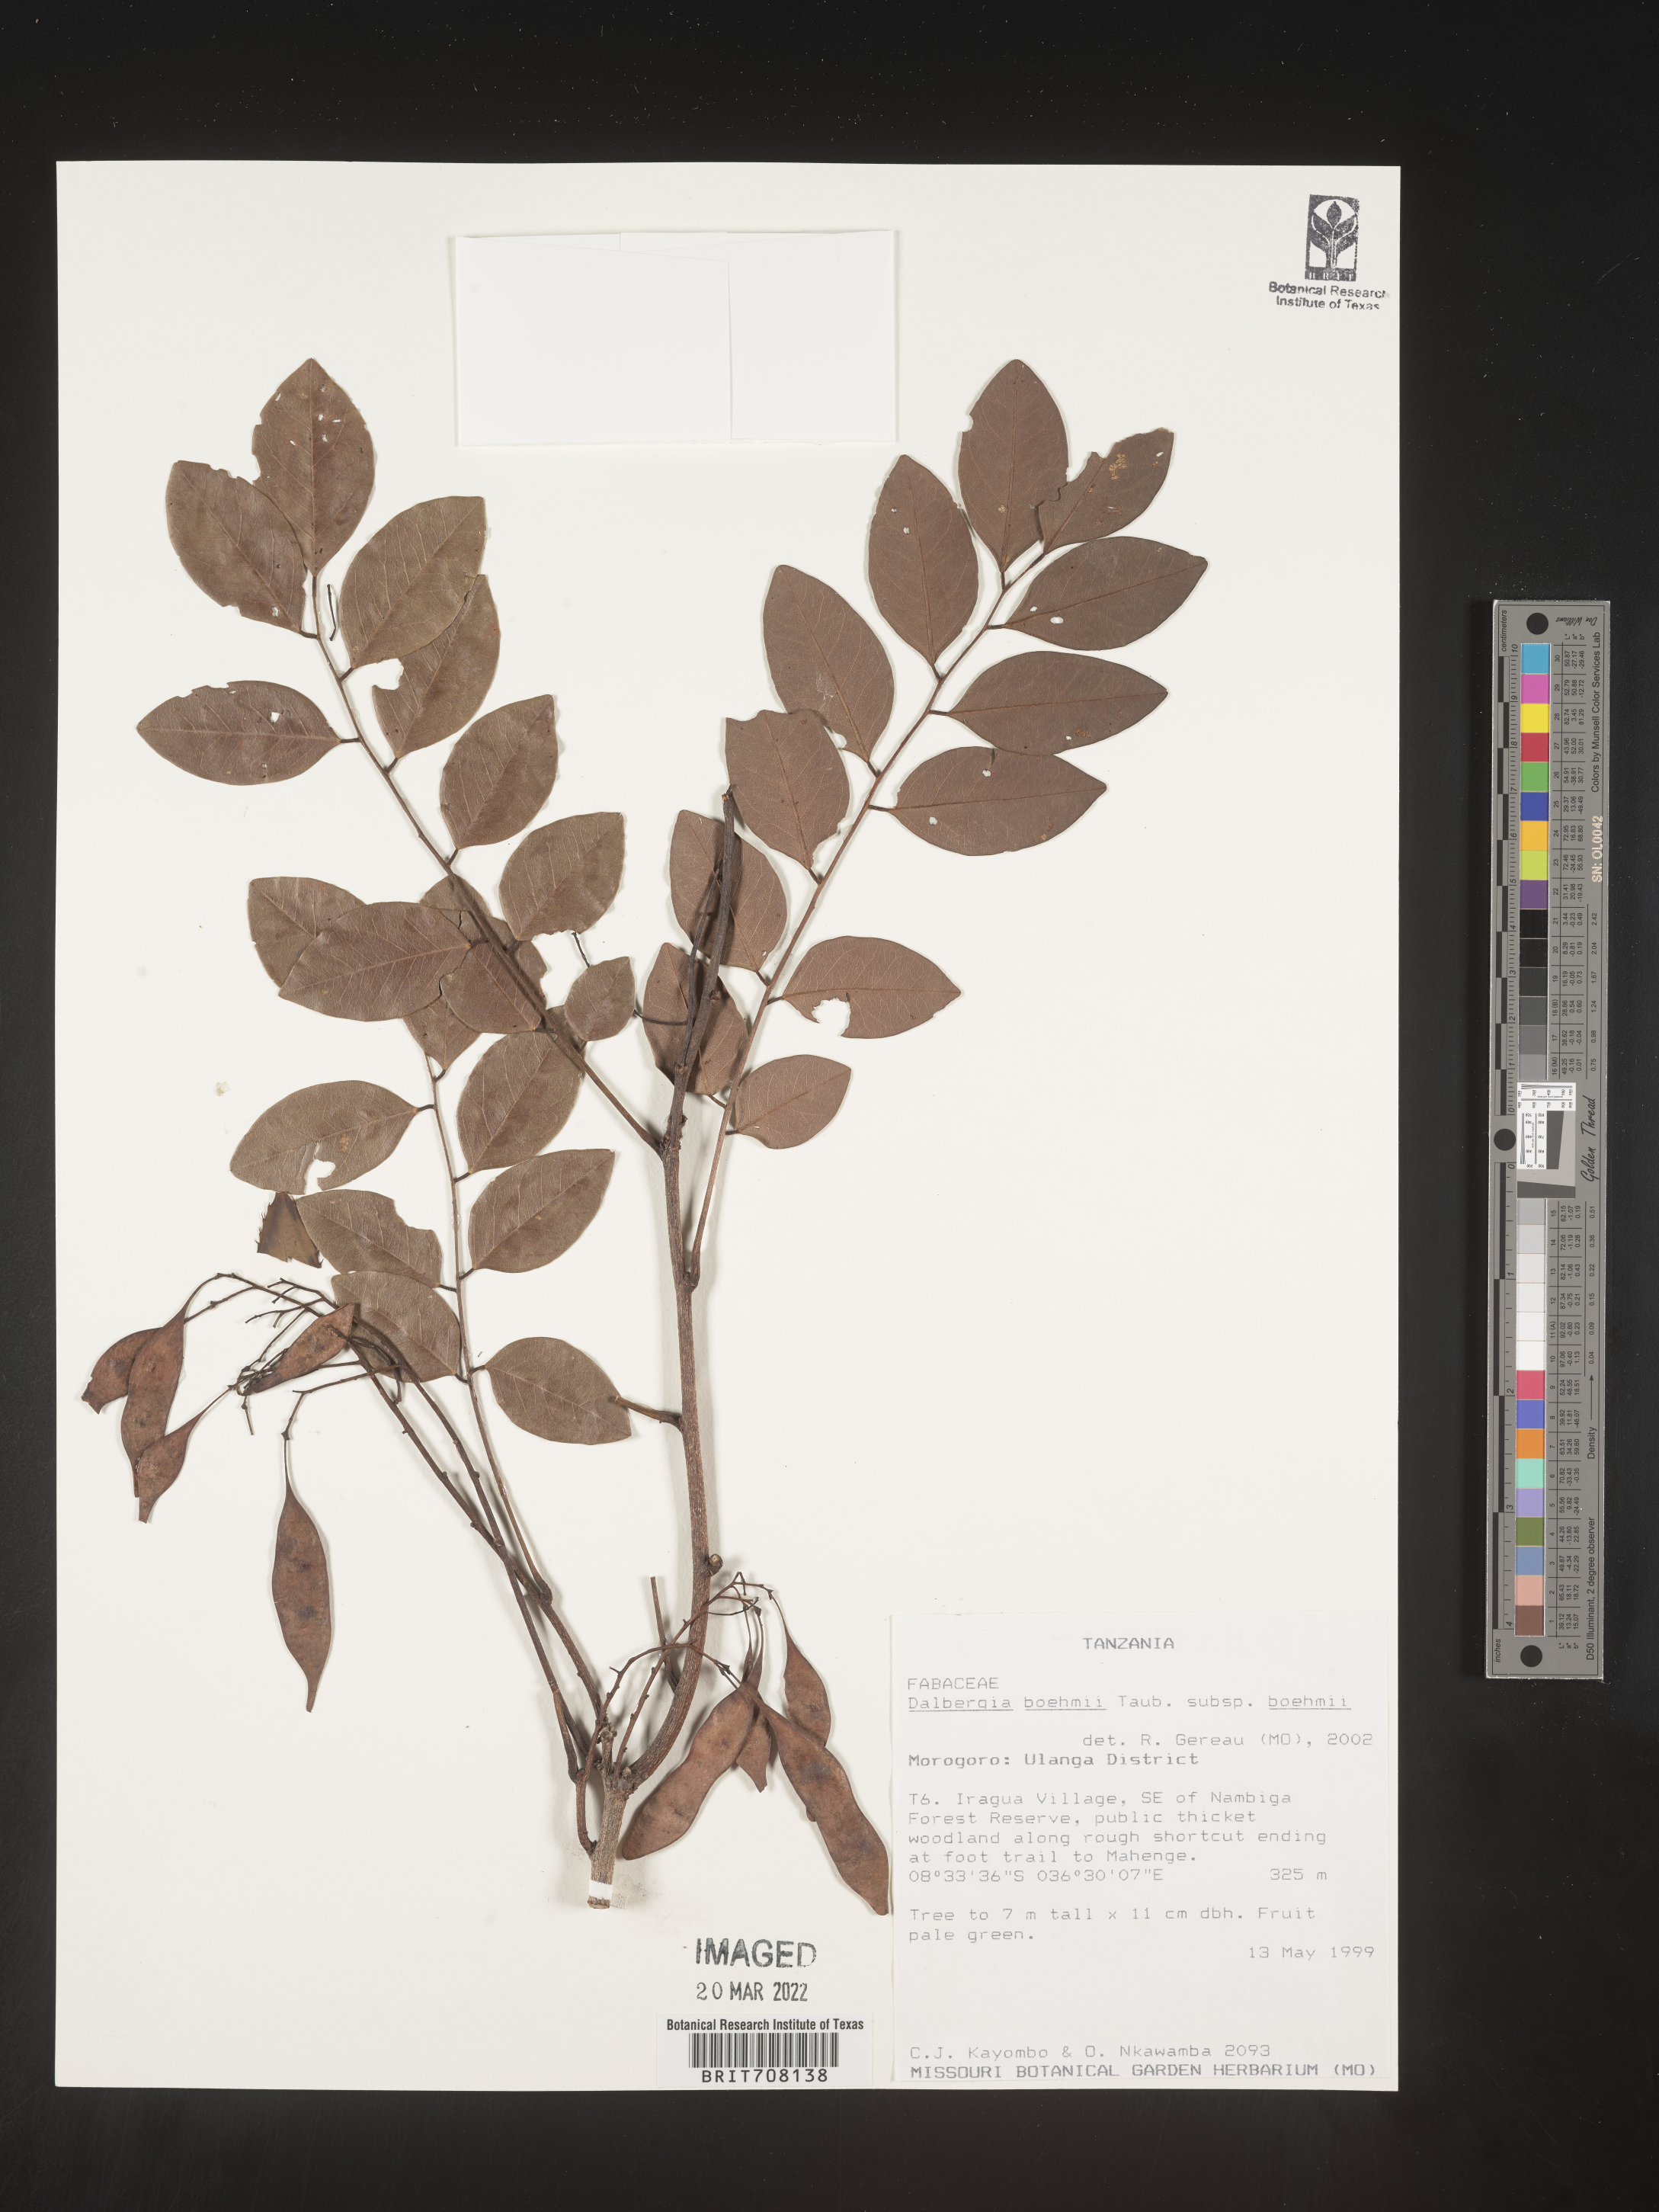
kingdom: Plantae
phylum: Tracheophyta
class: Magnoliopsida
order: Fabales
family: Fabaceae
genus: Dalbergia
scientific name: Dalbergia
